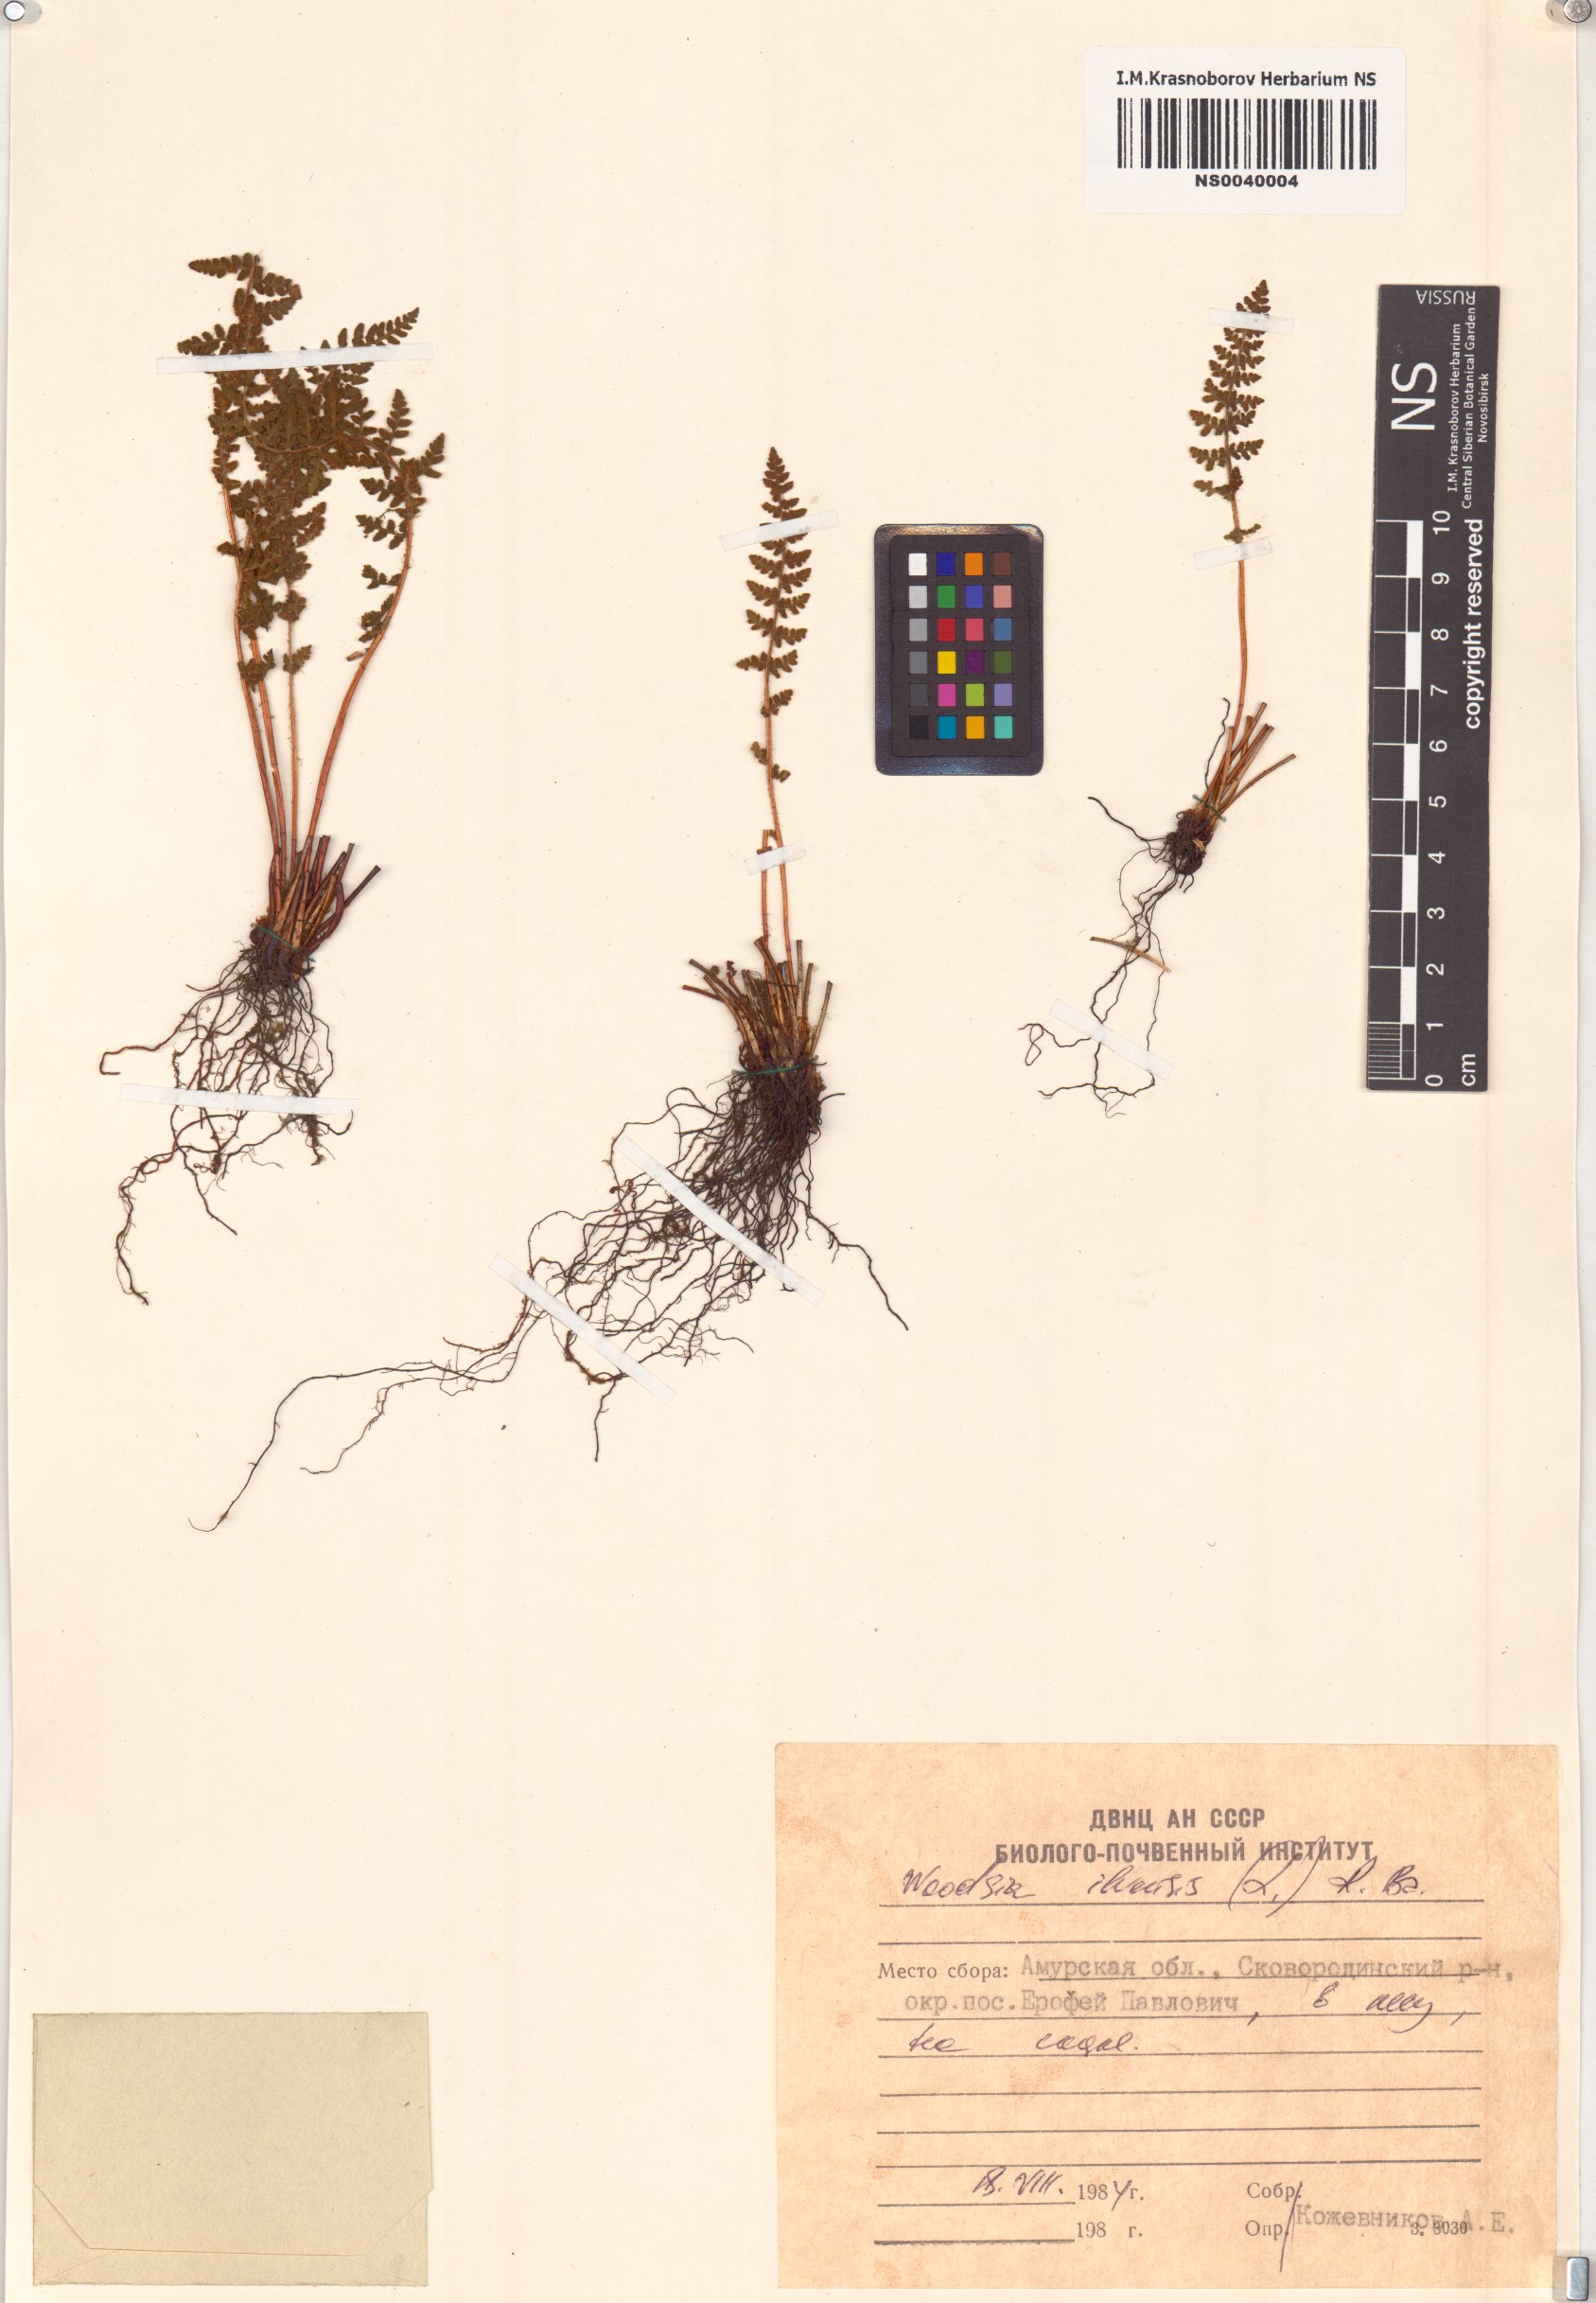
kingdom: Plantae
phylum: Tracheophyta
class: Polypodiopsida
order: Polypodiales
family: Woodsiaceae
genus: Woodsia
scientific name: Woodsia ilvensis
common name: Fragrant woodsia
